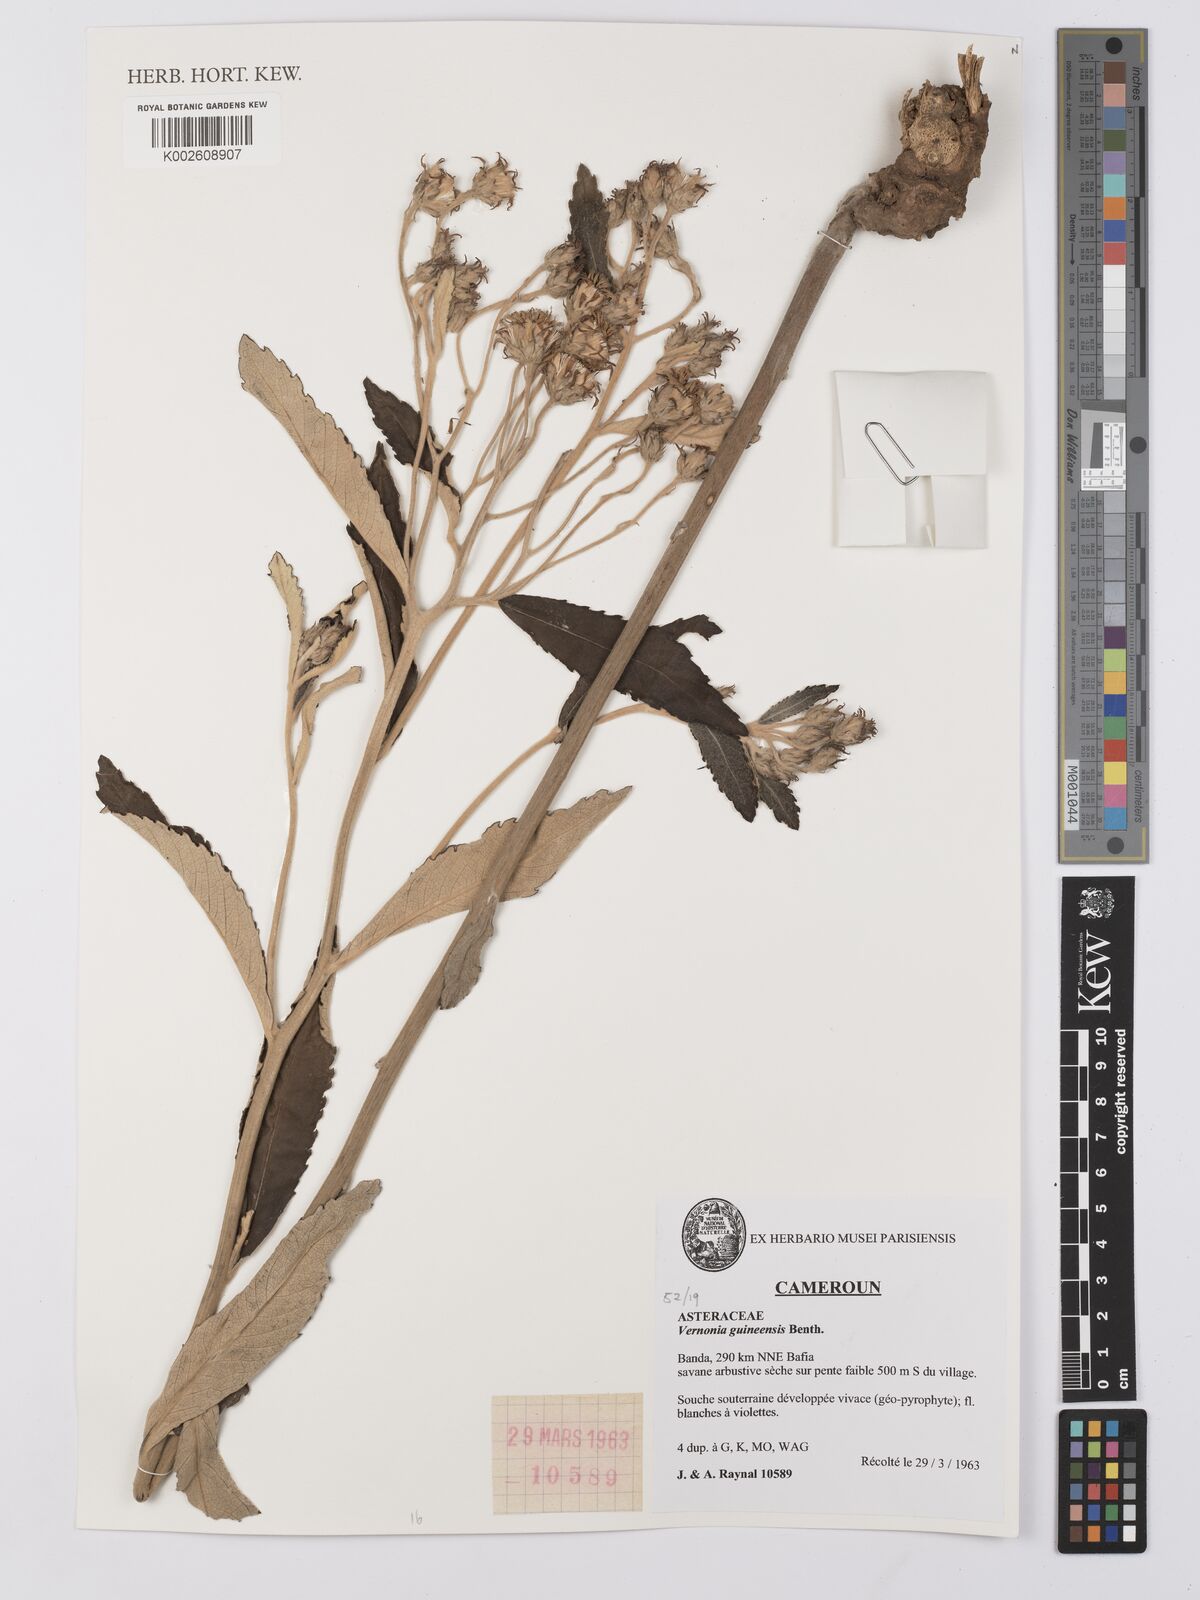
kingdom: Plantae
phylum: Tracheophyta
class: Magnoliopsida
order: Asterales
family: Asteraceae
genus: Baccharoides
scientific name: Baccharoides guineensis
